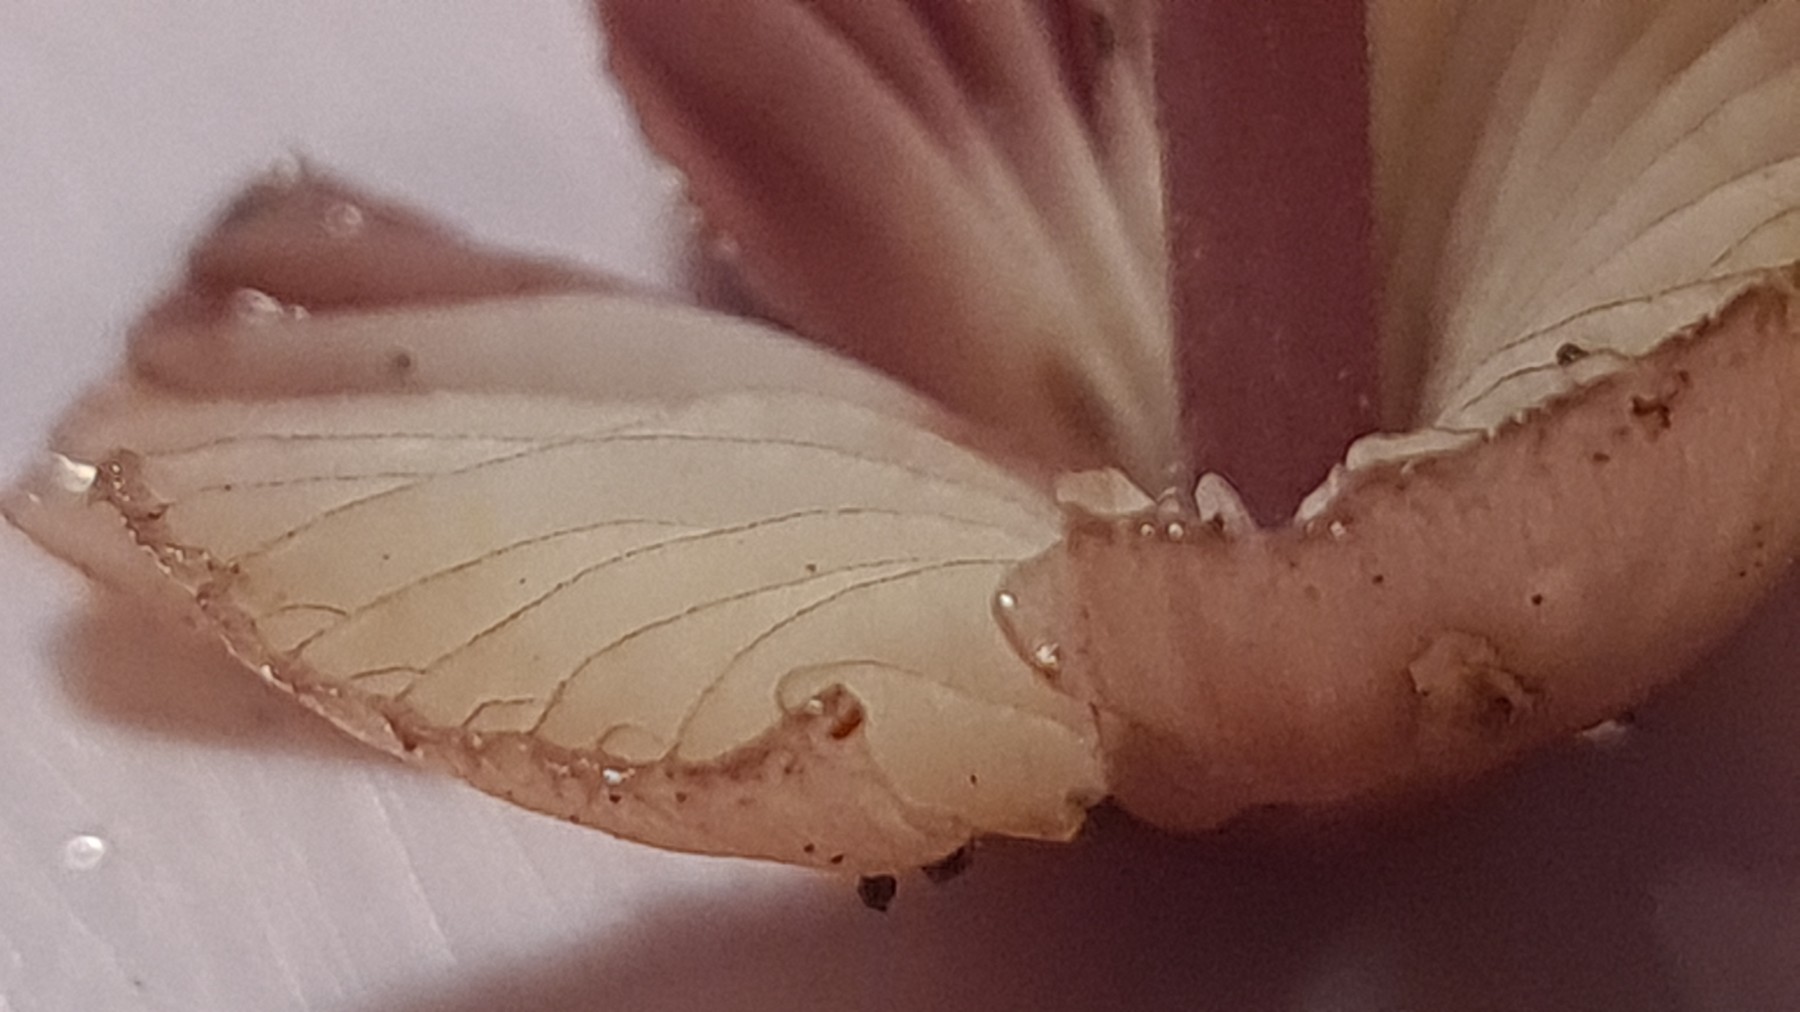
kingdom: Fungi
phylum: Basidiomycota
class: Agaricomycetes
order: Agaricales
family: Mycenaceae
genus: Mycena
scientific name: Mycena haematopus
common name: blødende huesvamp
